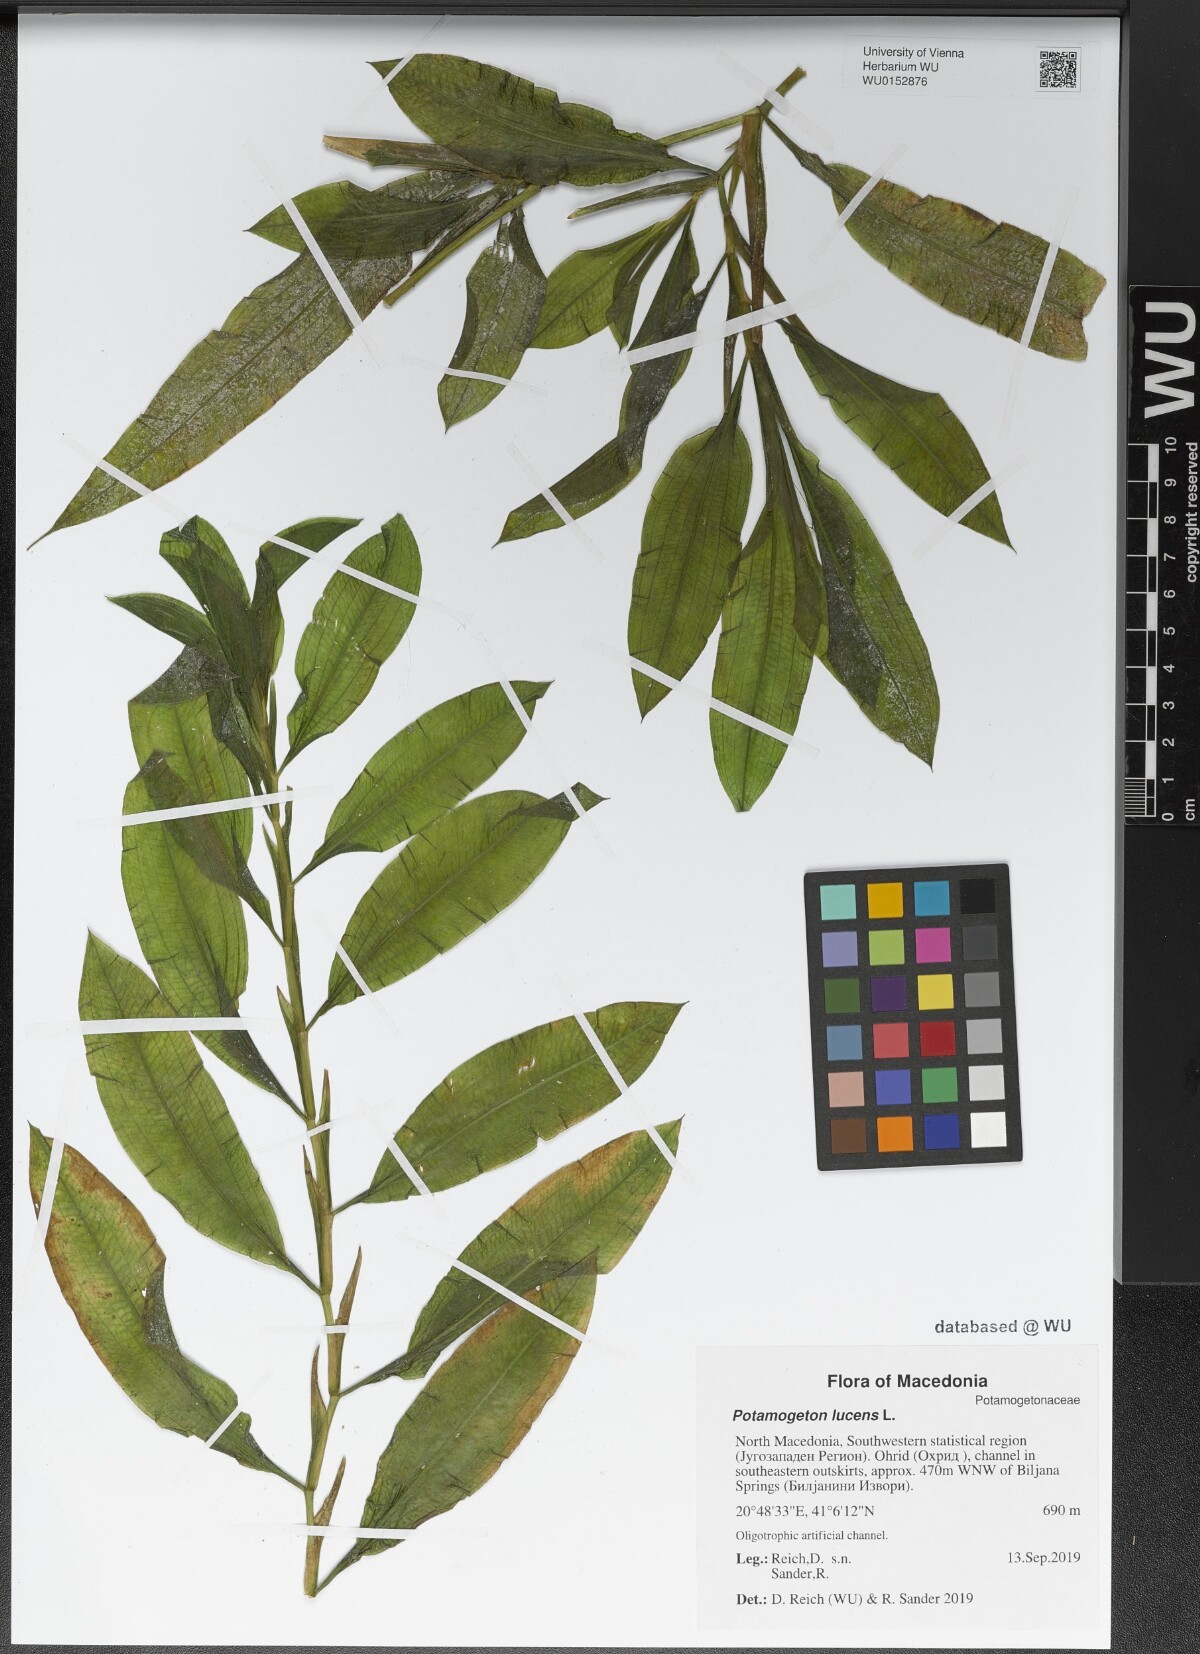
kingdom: Plantae
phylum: Tracheophyta
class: Liliopsida
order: Alismatales
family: Potamogetonaceae
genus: Potamogeton
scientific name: Potamogeton lucens
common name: Shining pondweed
